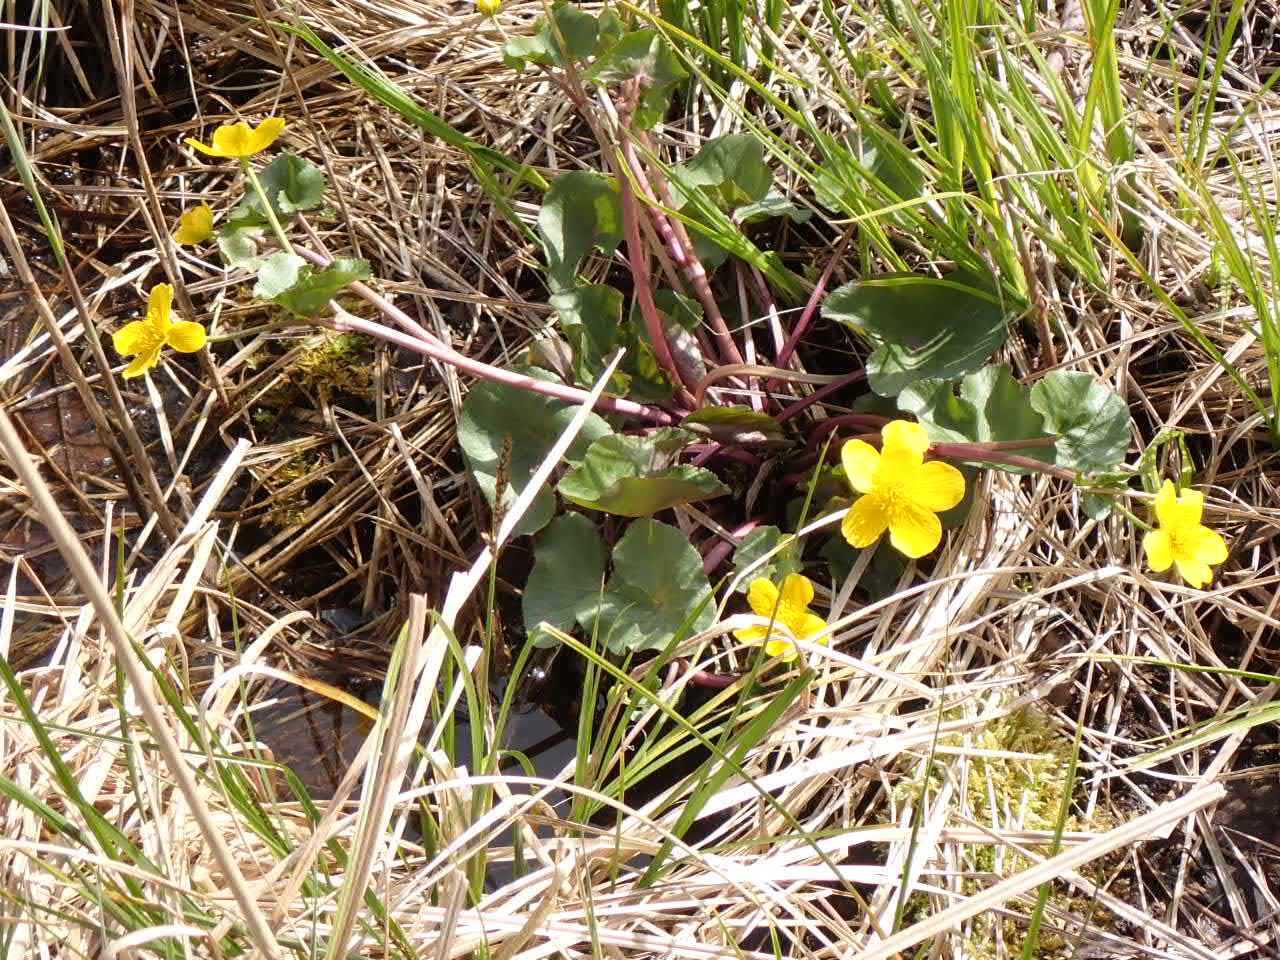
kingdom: Plantae
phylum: Tracheophyta
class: Magnoliopsida
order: Ranunculales
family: Ranunculaceae
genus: Caltha
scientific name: Caltha palustris
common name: Eng-kabbeleje
